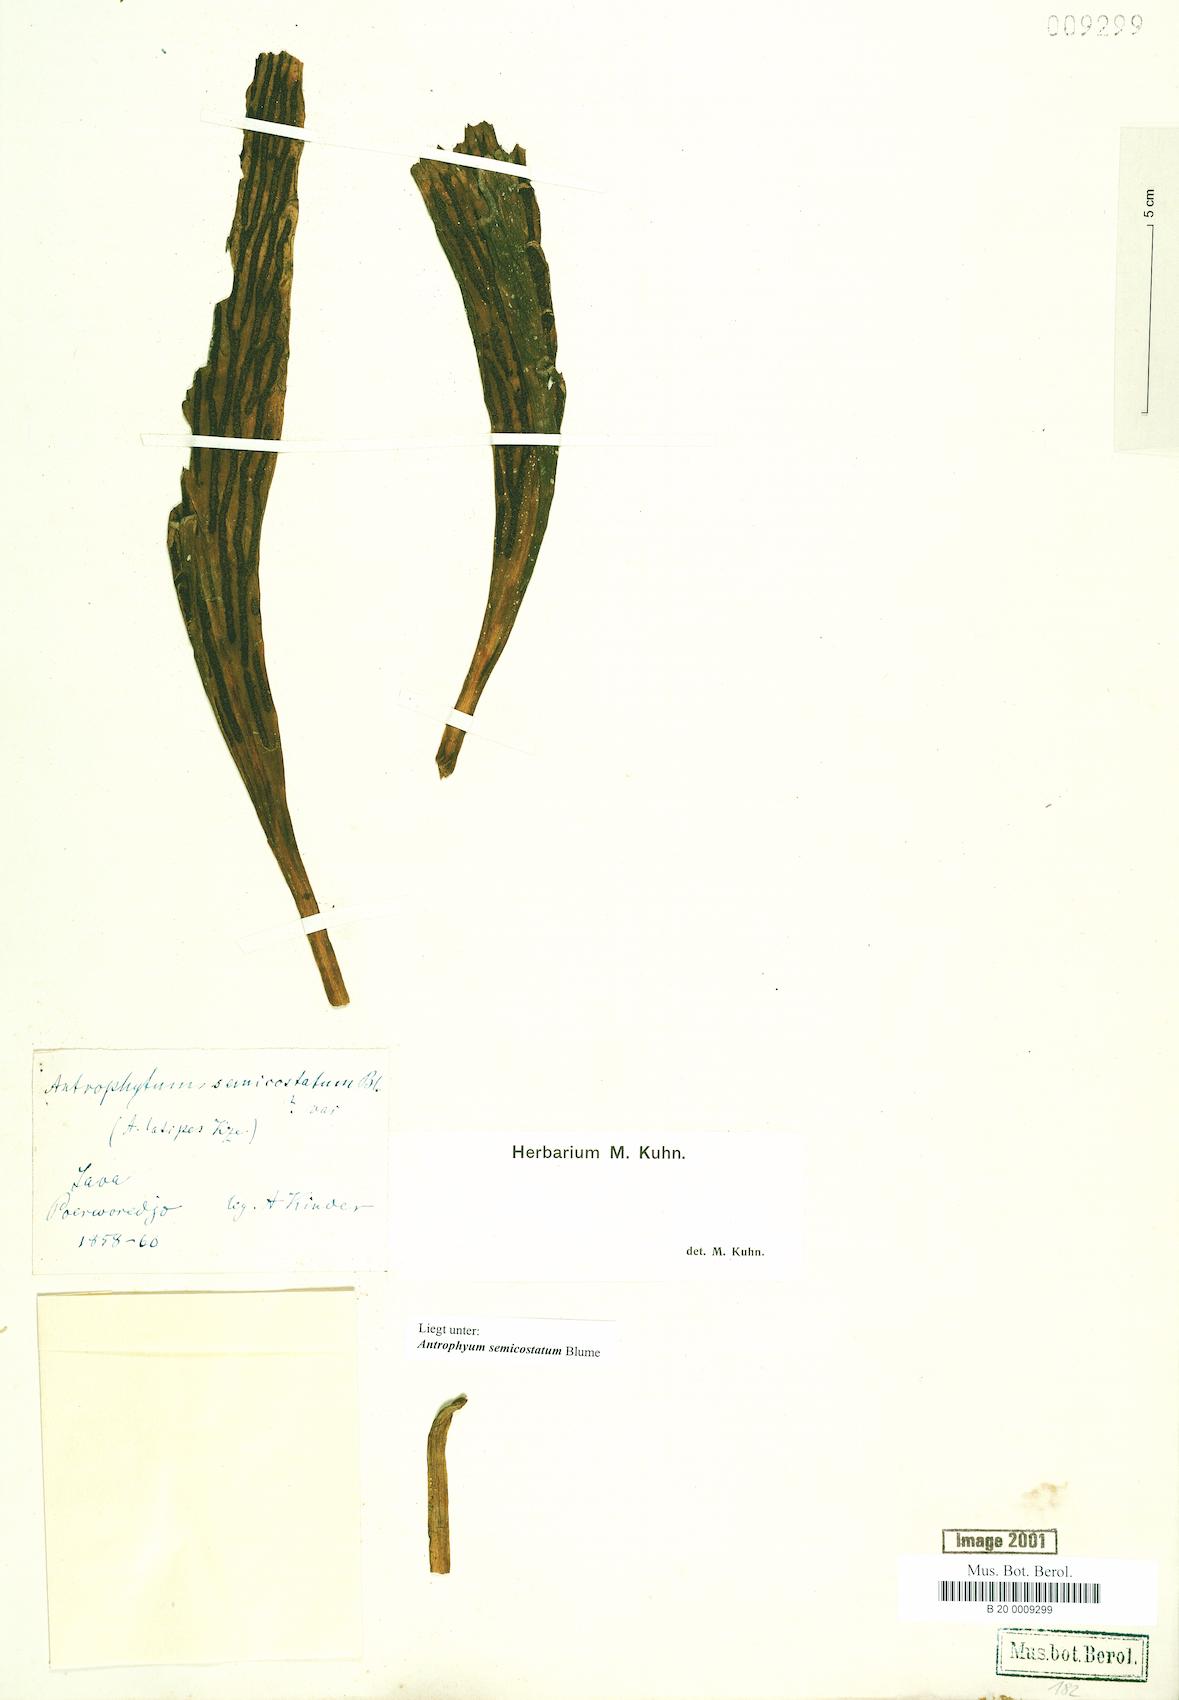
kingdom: Plantae
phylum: Tracheophyta
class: Polypodiopsida
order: Polypodiales
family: Pteridaceae
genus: Antrophyum
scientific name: Antrophyum semicostatum
